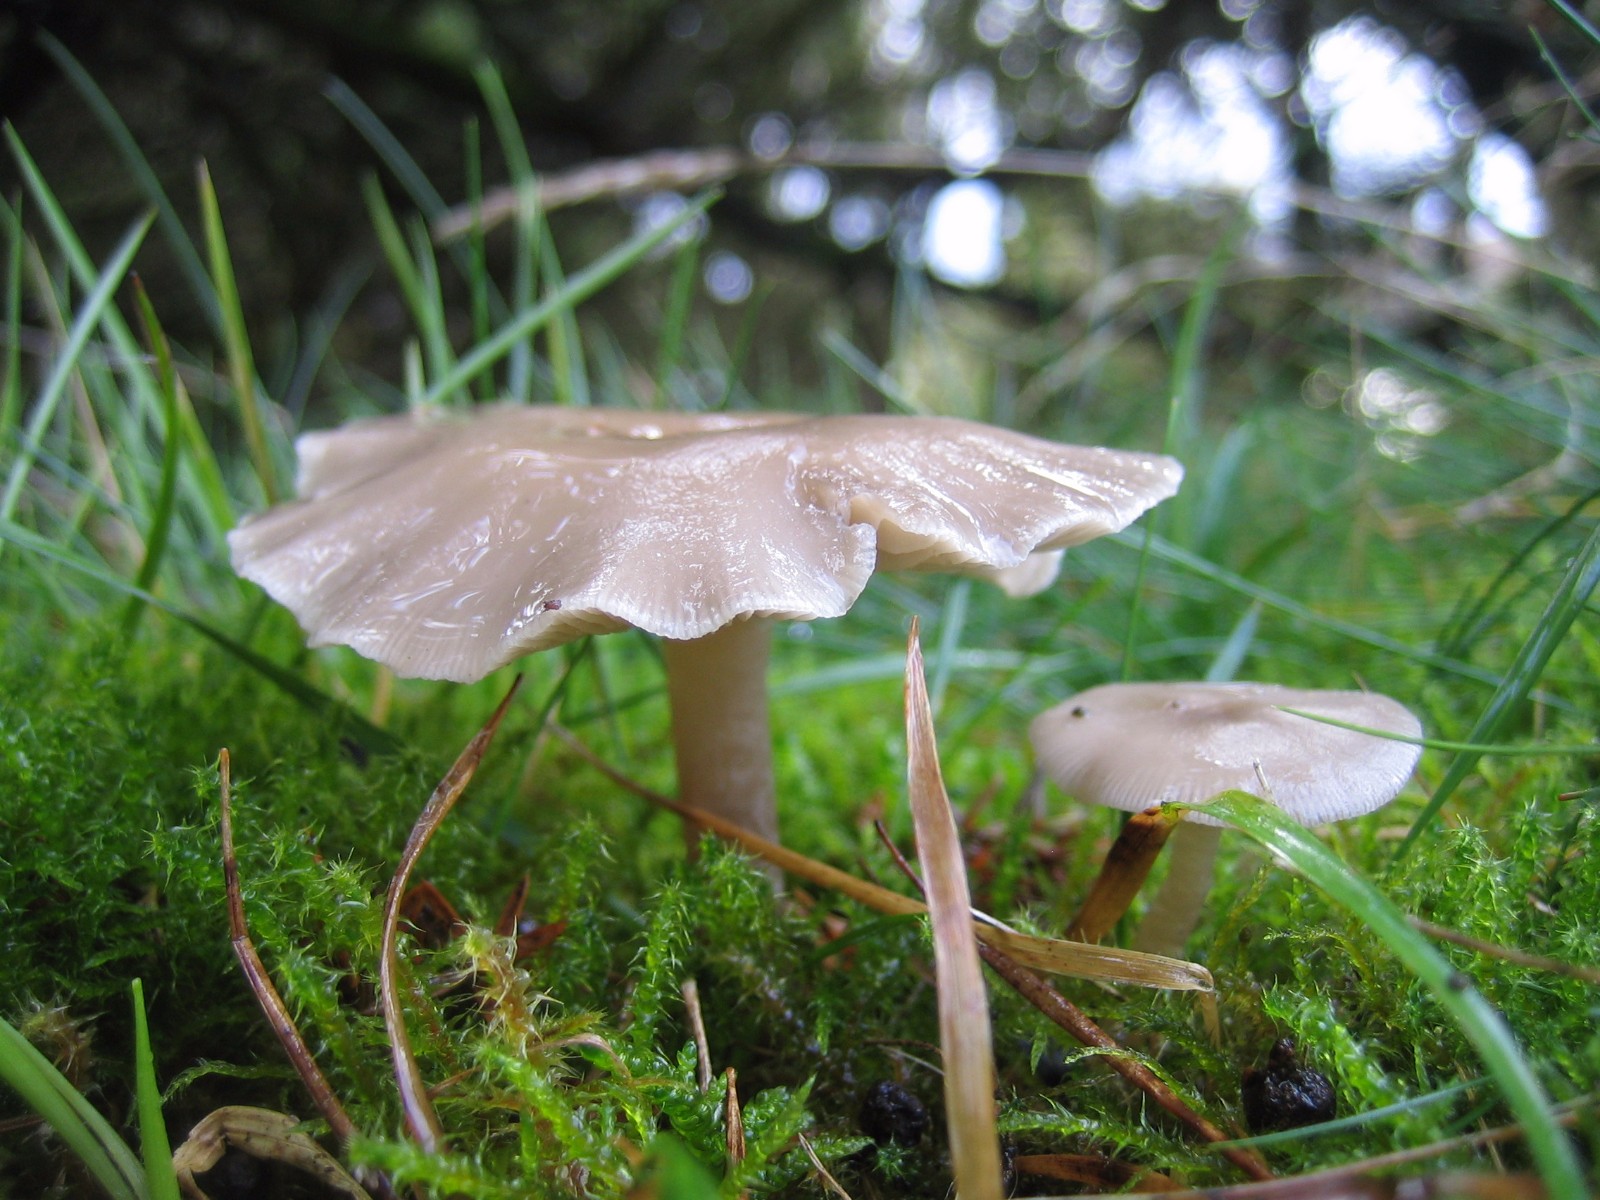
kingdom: Fungi
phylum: Basidiomycota
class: Agaricomycetes
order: Agaricales
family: Tricholomataceae
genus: Clitocybe
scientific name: Clitocybe
